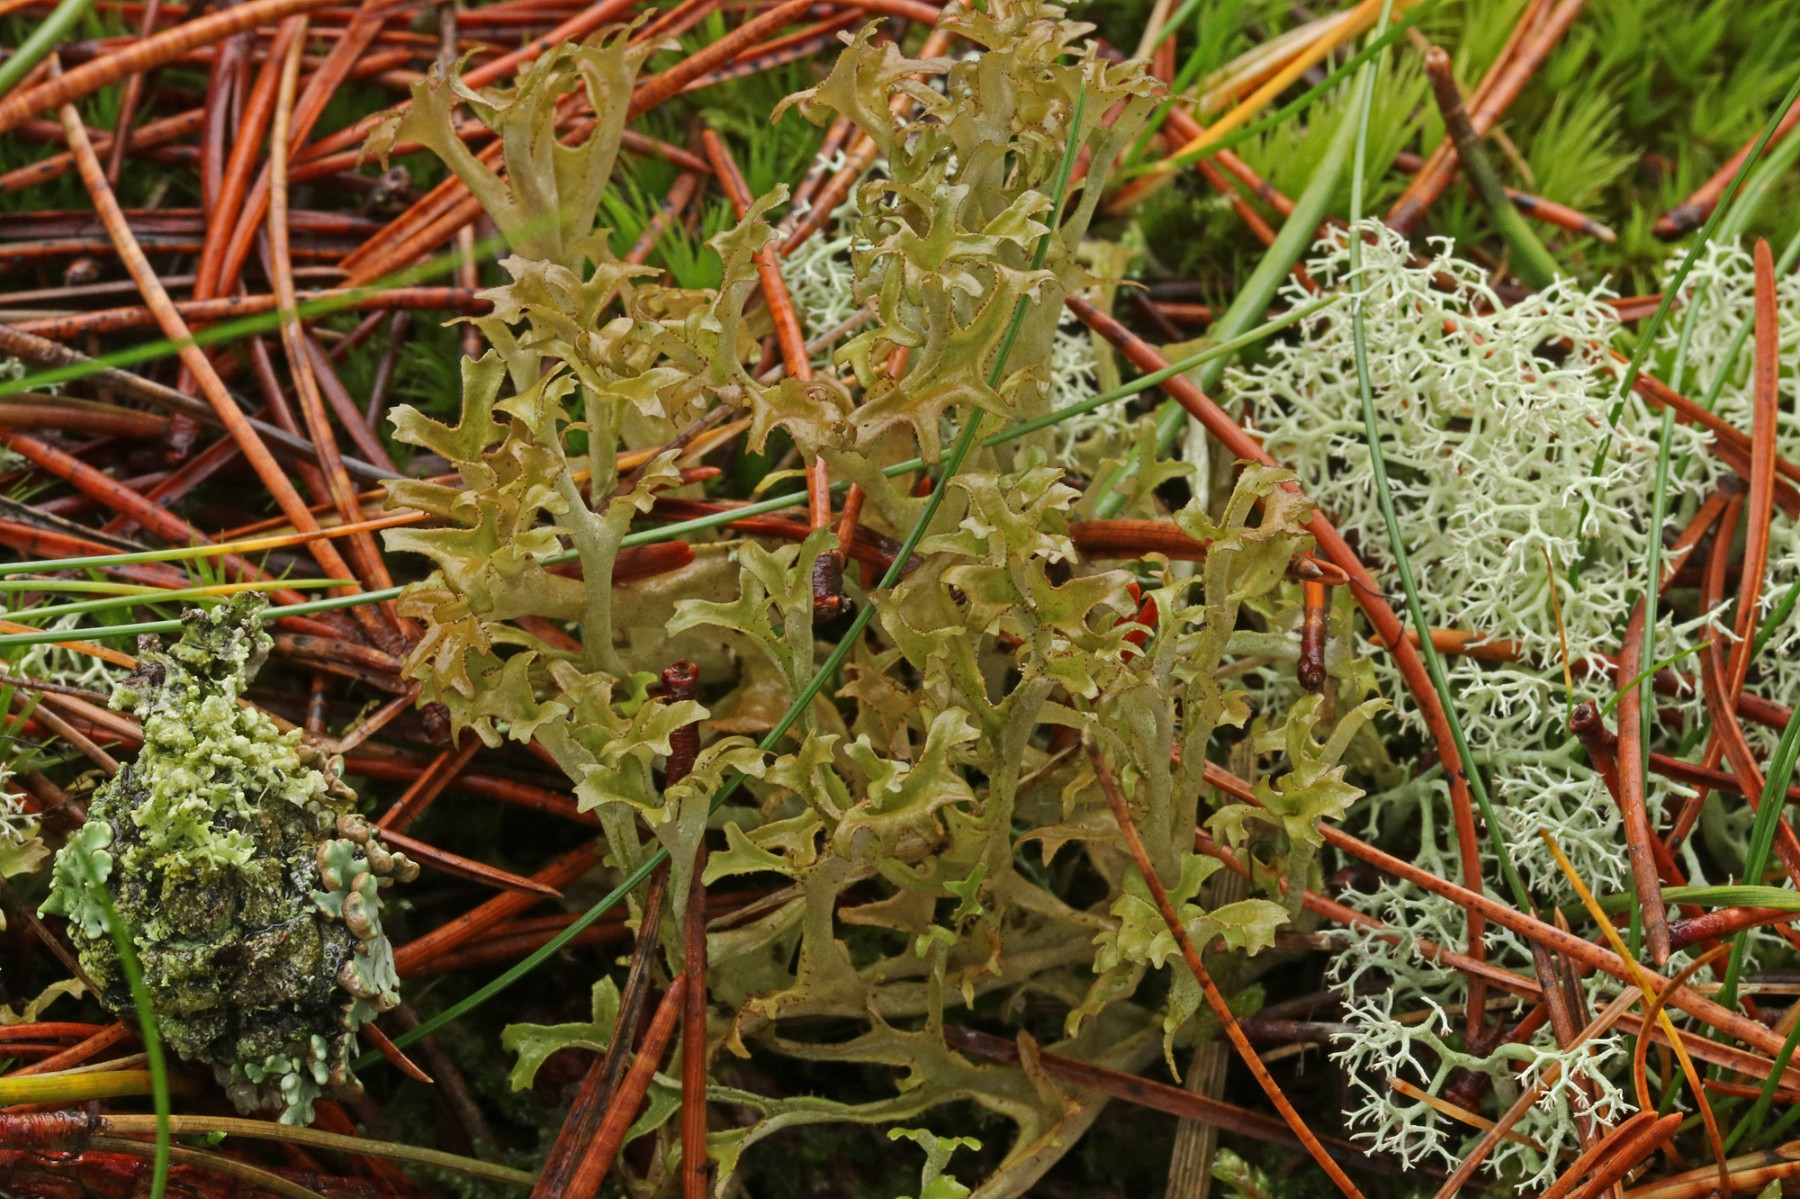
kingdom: Fungi
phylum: Ascomycota
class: Lecanoromycetes
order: Lecanorales
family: Parmeliaceae
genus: Cetraria
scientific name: Cetraria islandica
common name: islandsk kruslav
